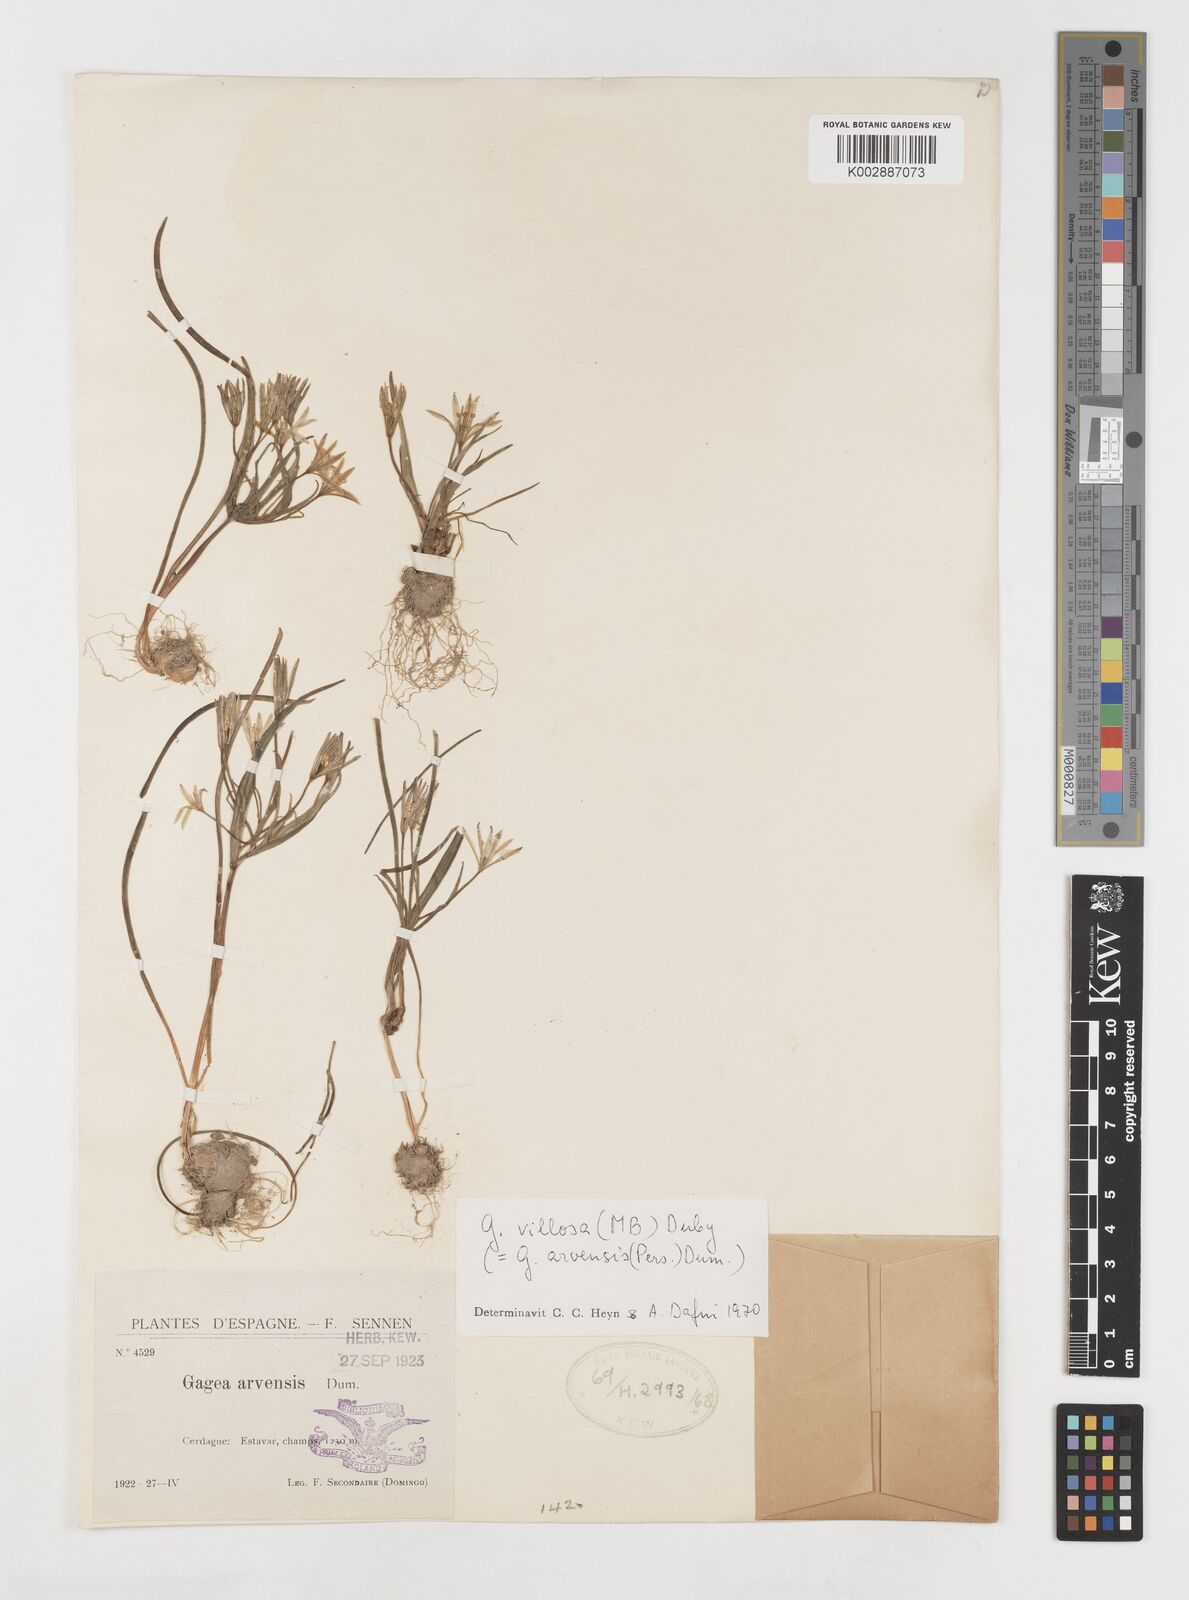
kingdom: Plantae
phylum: Tracheophyta
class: Liliopsida
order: Liliales
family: Liliaceae
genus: Gagea
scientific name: Gagea minima
